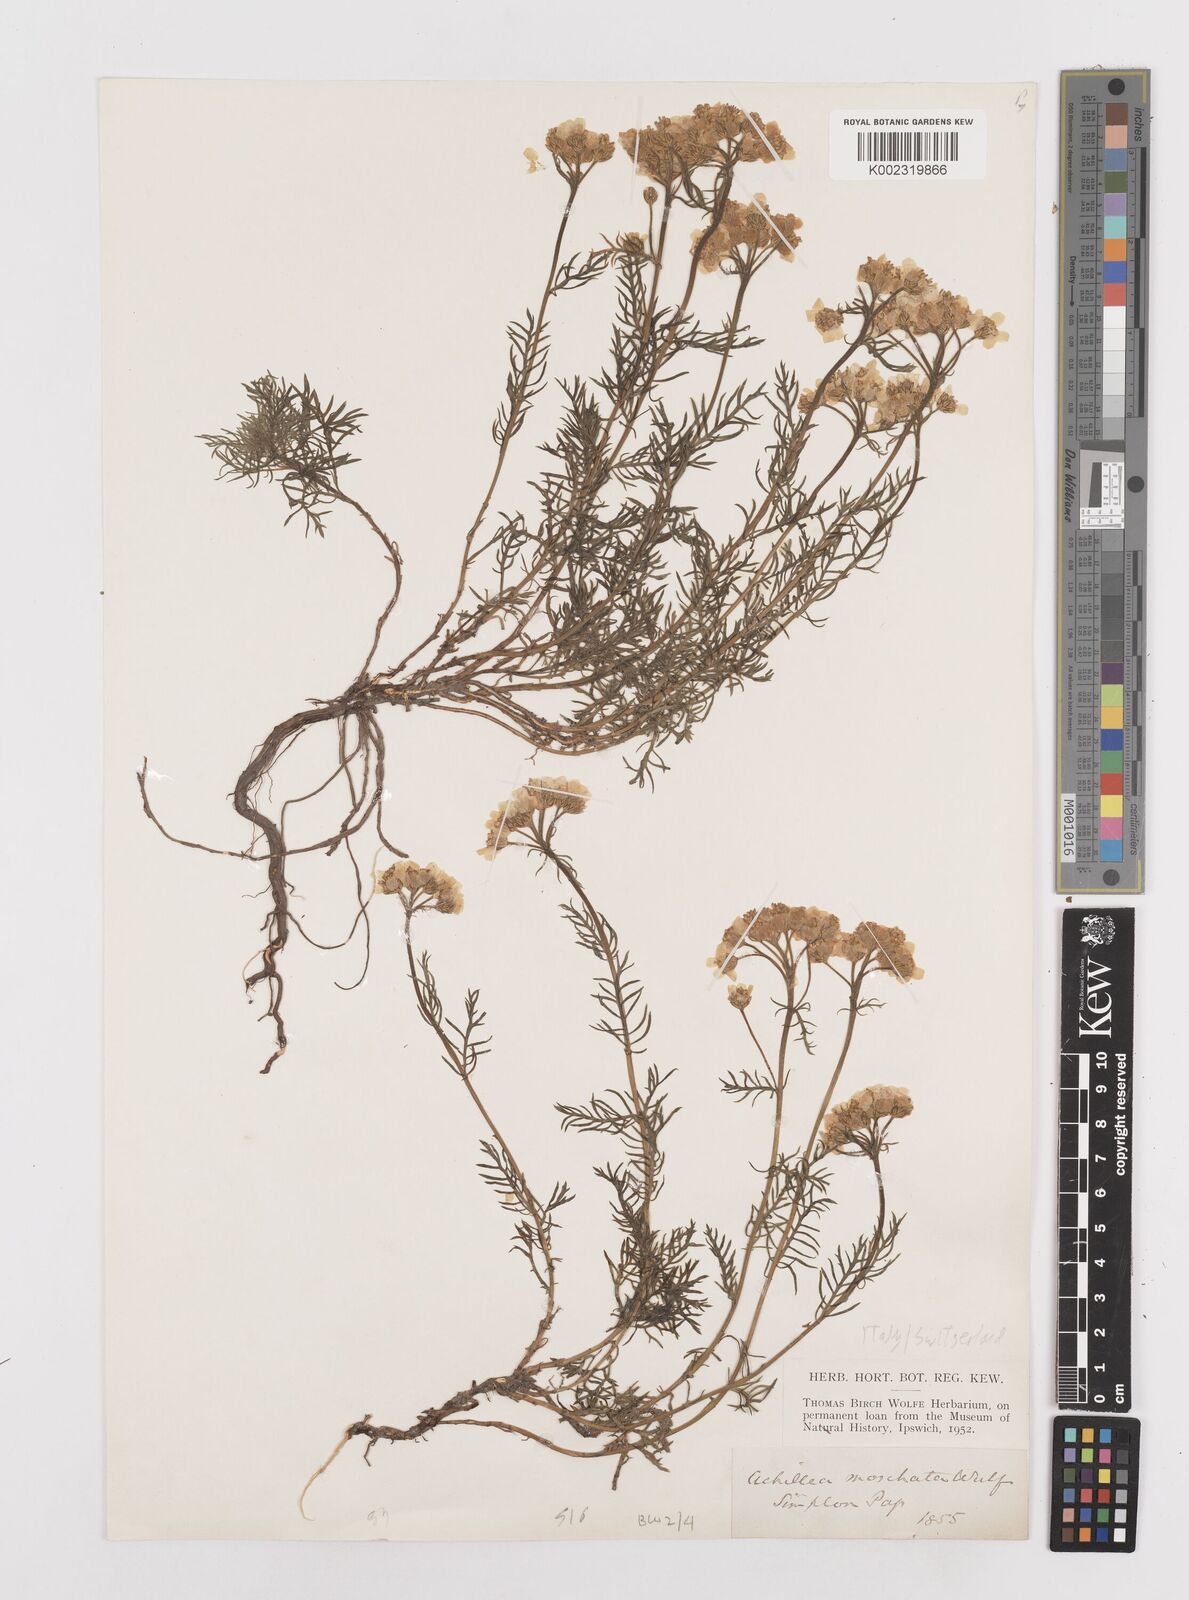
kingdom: Plantae
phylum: Tracheophyta
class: Magnoliopsida
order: Asterales
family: Asteraceae
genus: Achillea
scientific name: Achillea erba-rotta
